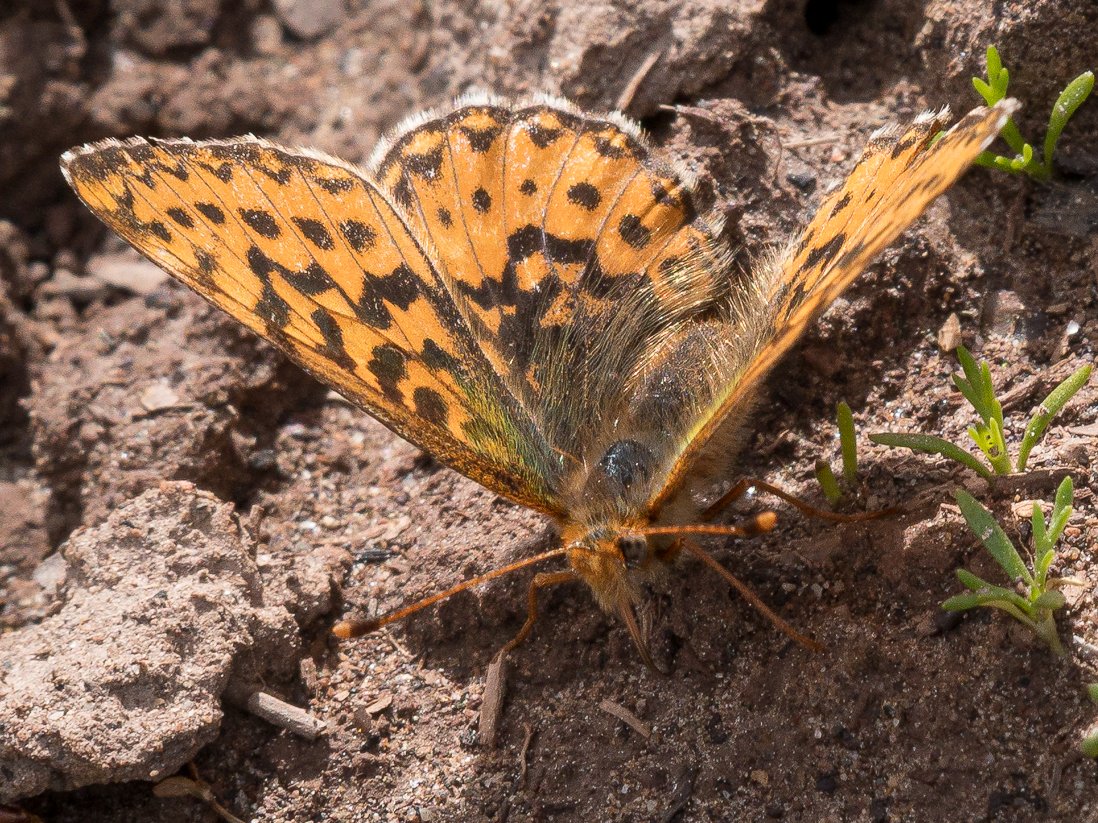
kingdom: Animalia
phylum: Arthropoda
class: Insecta
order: Lepidoptera
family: Nymphalidae
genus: Boloria
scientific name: Boloria freija
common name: Freija Fritillary
